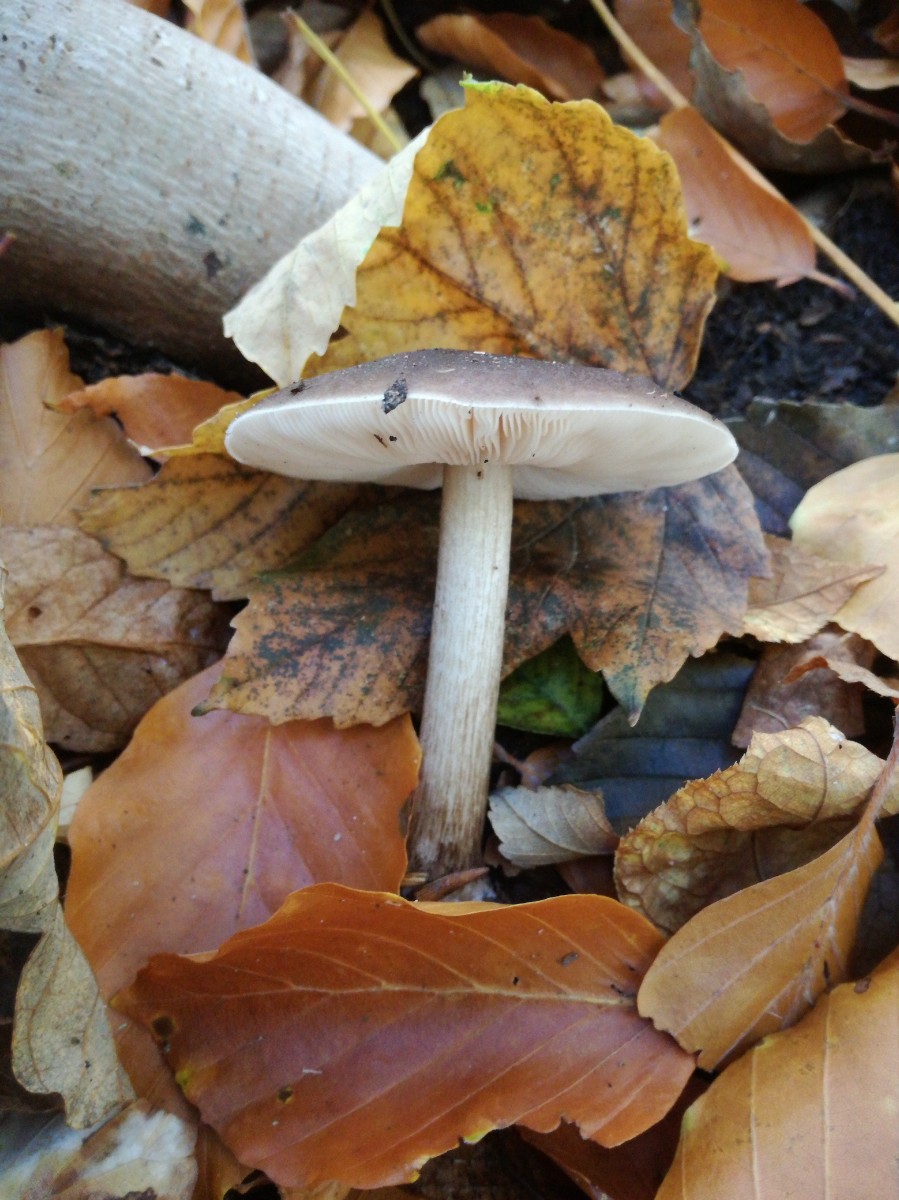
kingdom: Fungi
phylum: Basidiomycota
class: Agaricomycetes
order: Agaricales
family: Pluteaceae
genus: Pluteus
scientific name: Pluteus cervinus
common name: sodfarvet skærmhat
